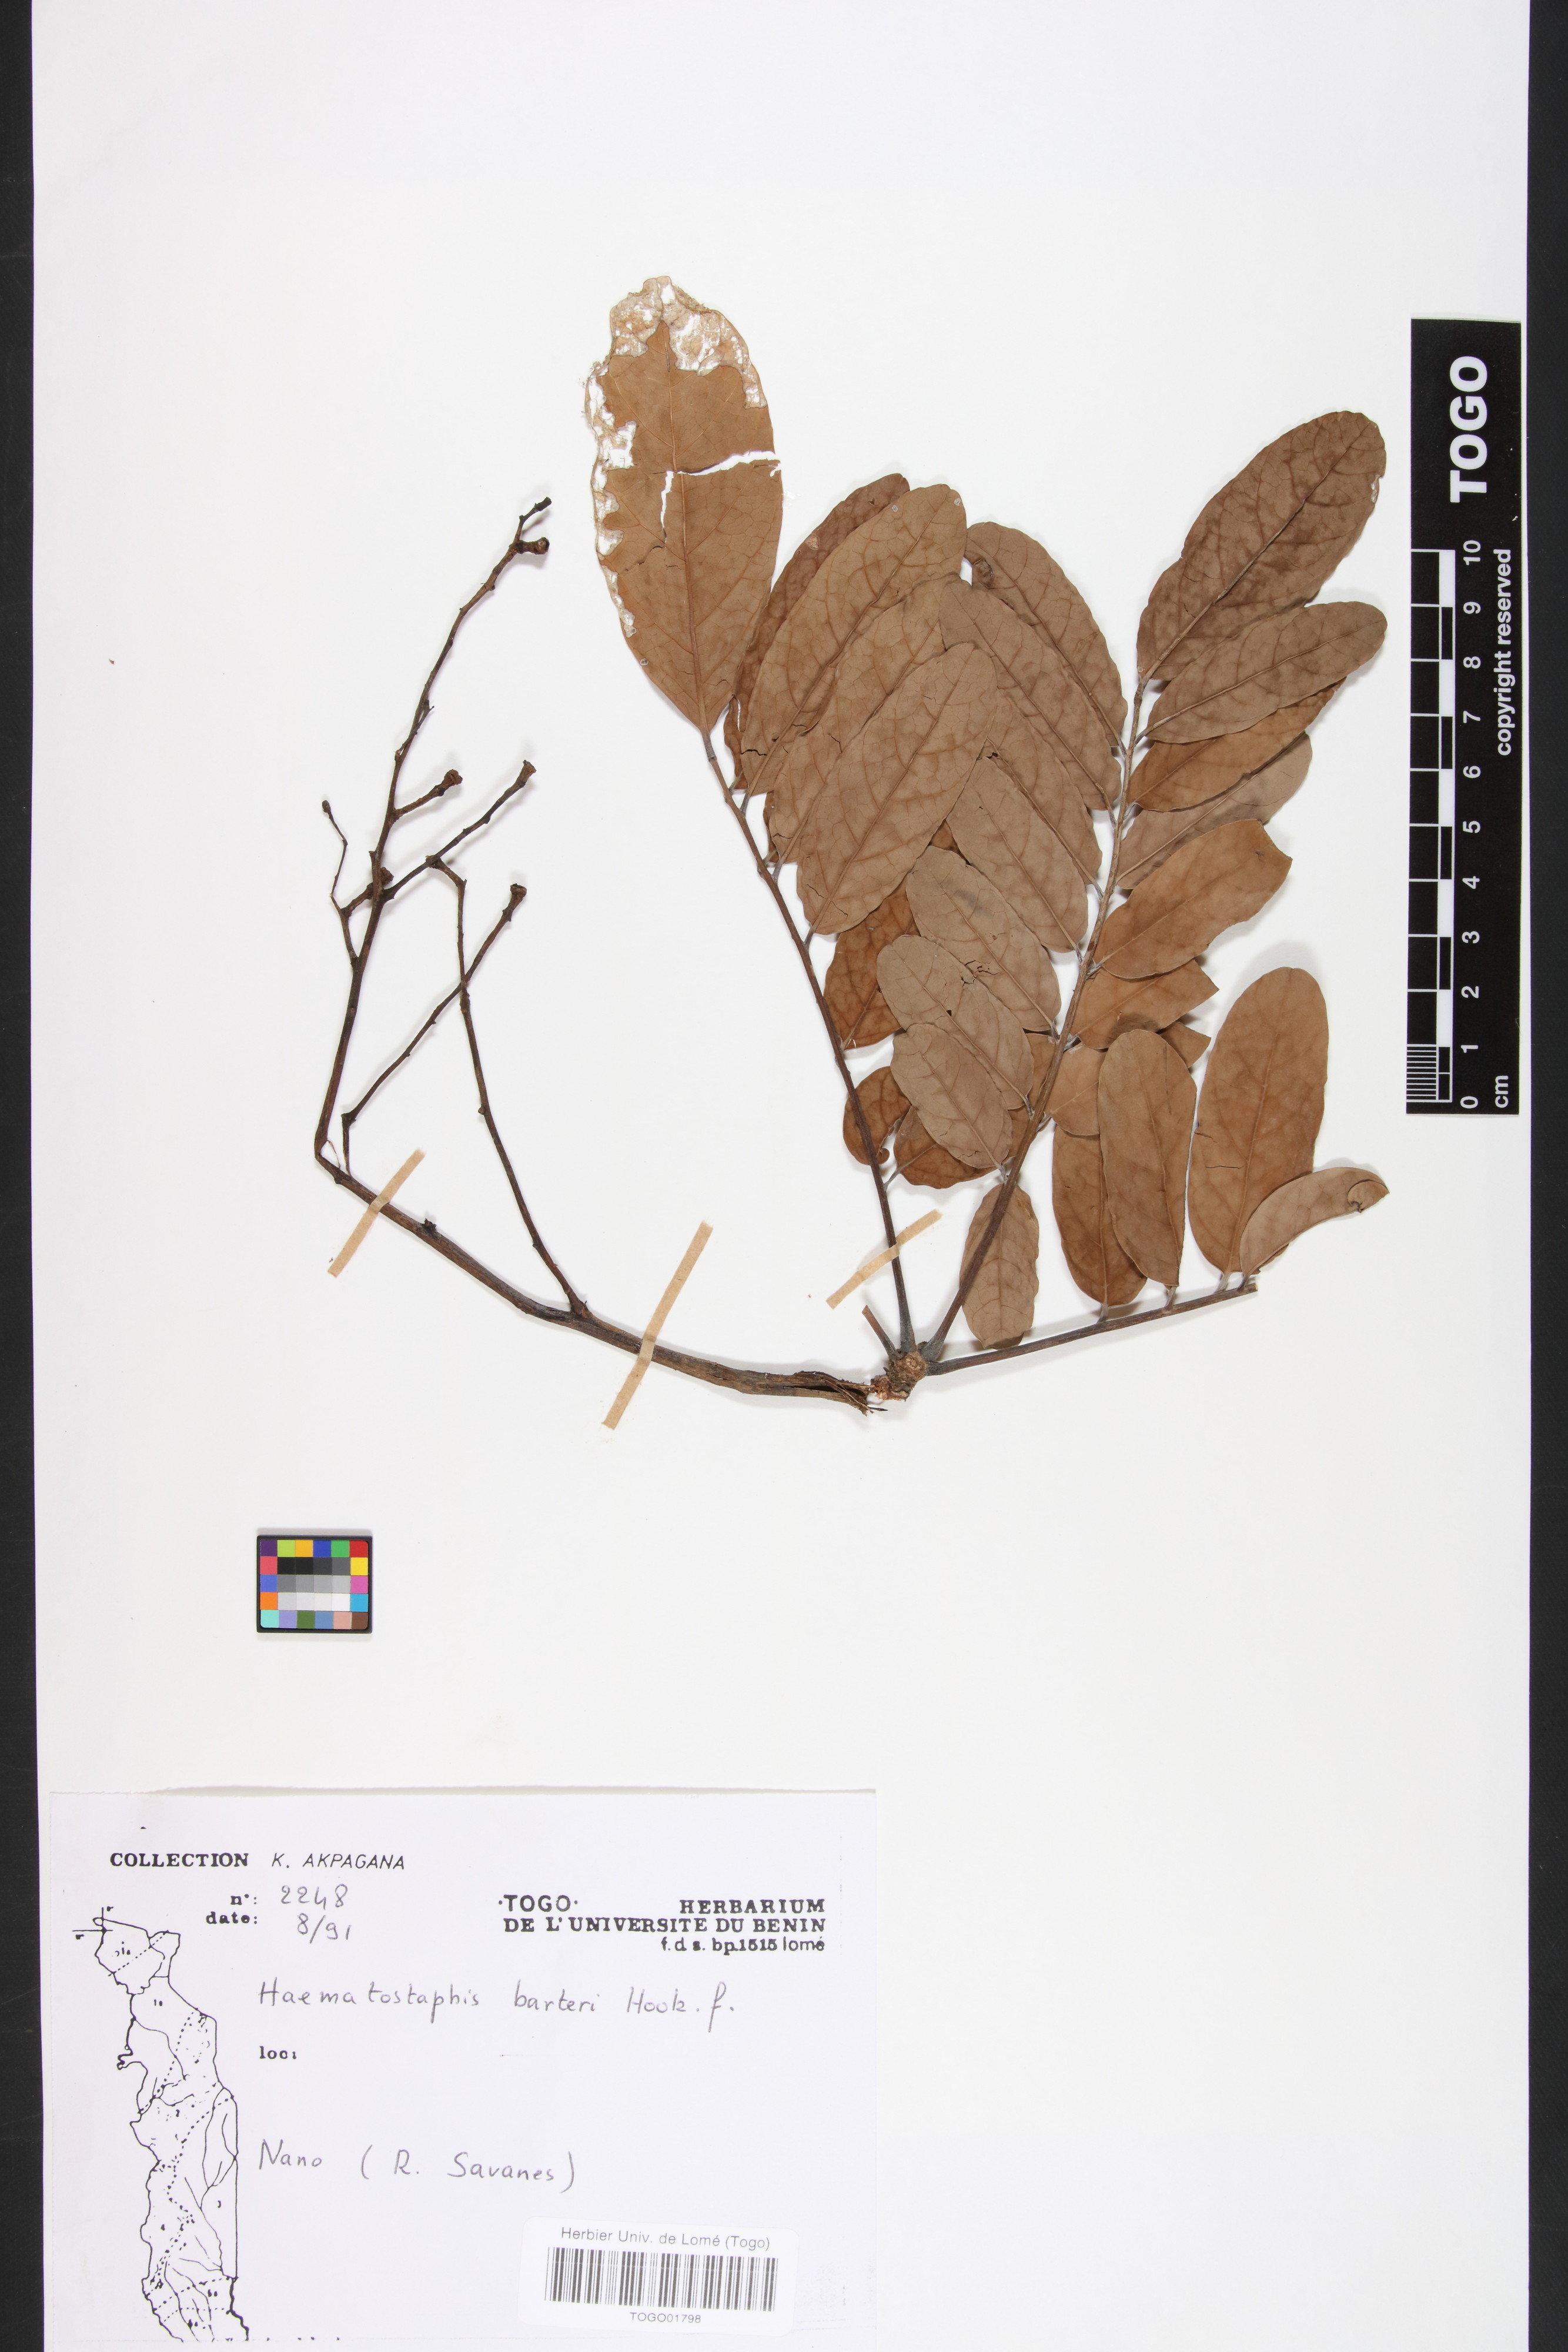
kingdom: Plantae
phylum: Tracheophyta
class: Magnoliopsida
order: Sapindales
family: Anacardiaceae
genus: Haematostaphis
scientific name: Haematostaphis barteri
